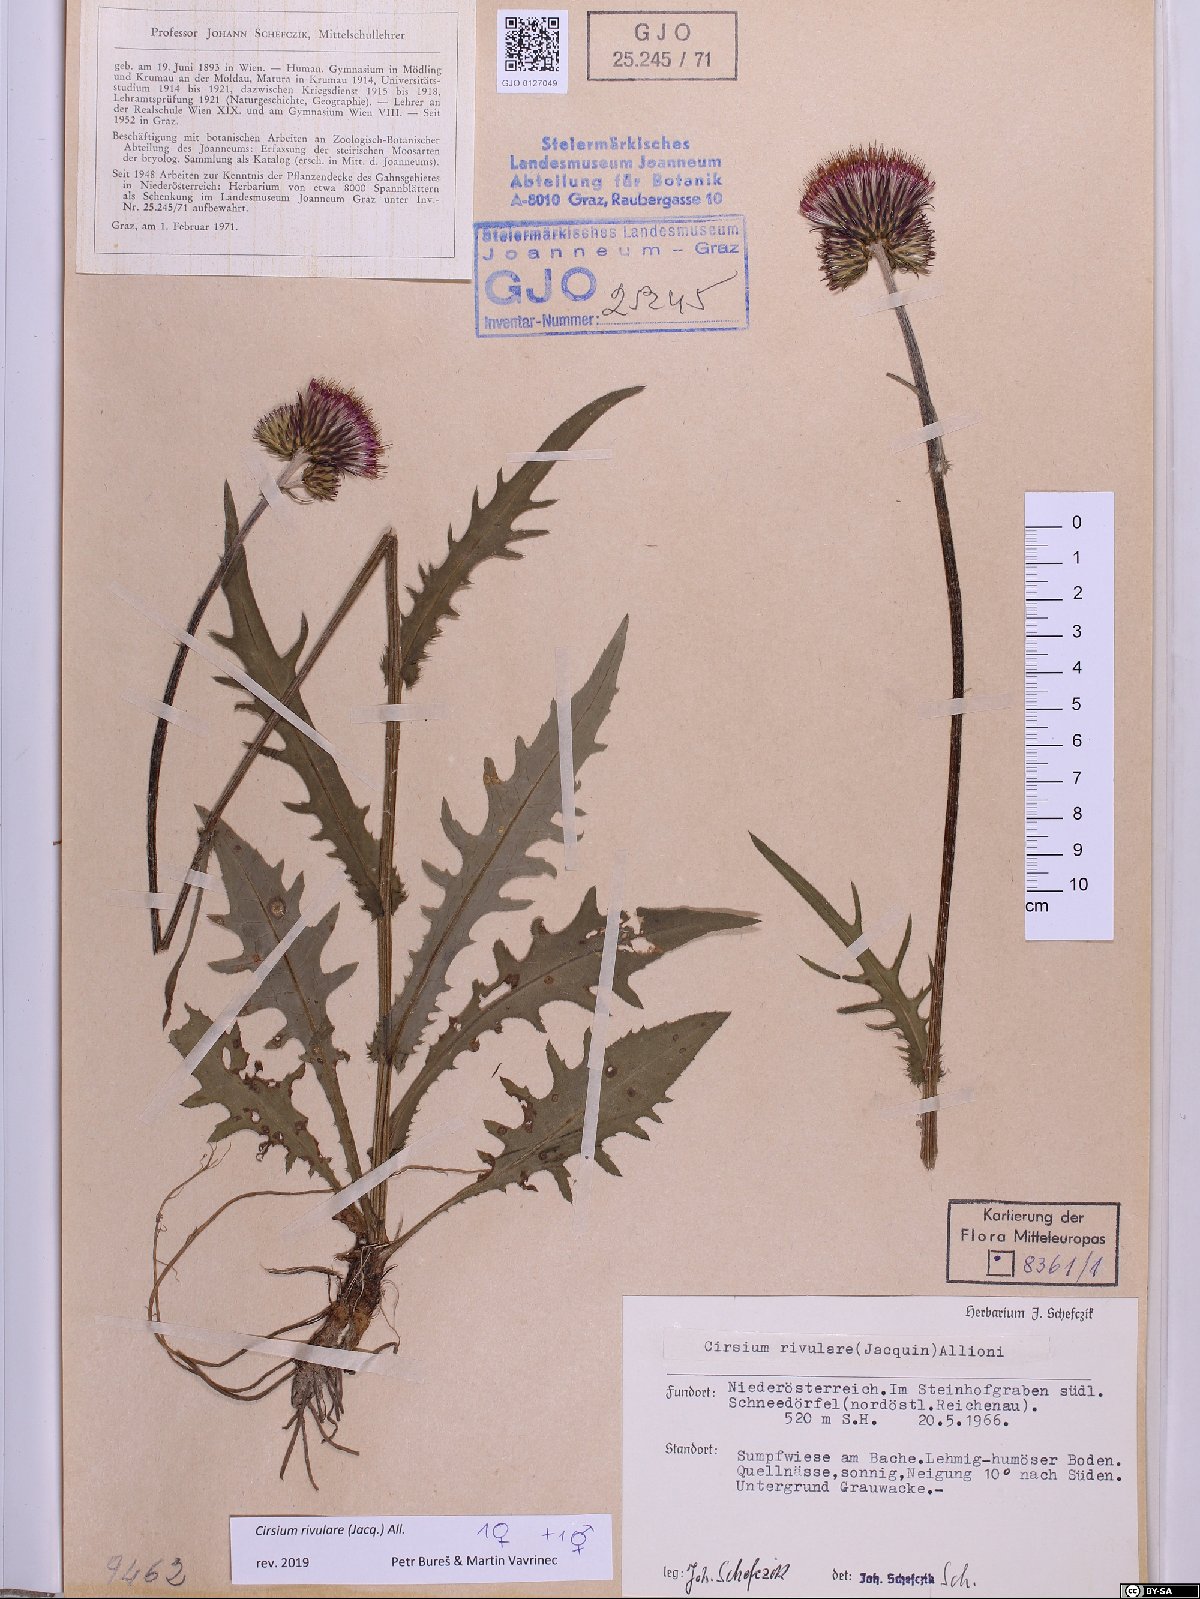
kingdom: Plantae
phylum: Tracheophyta
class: Magnoliopsida
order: Asterales
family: Asteraceae
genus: Cirsium
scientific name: Cirsium rivulare
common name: Brook thistle
